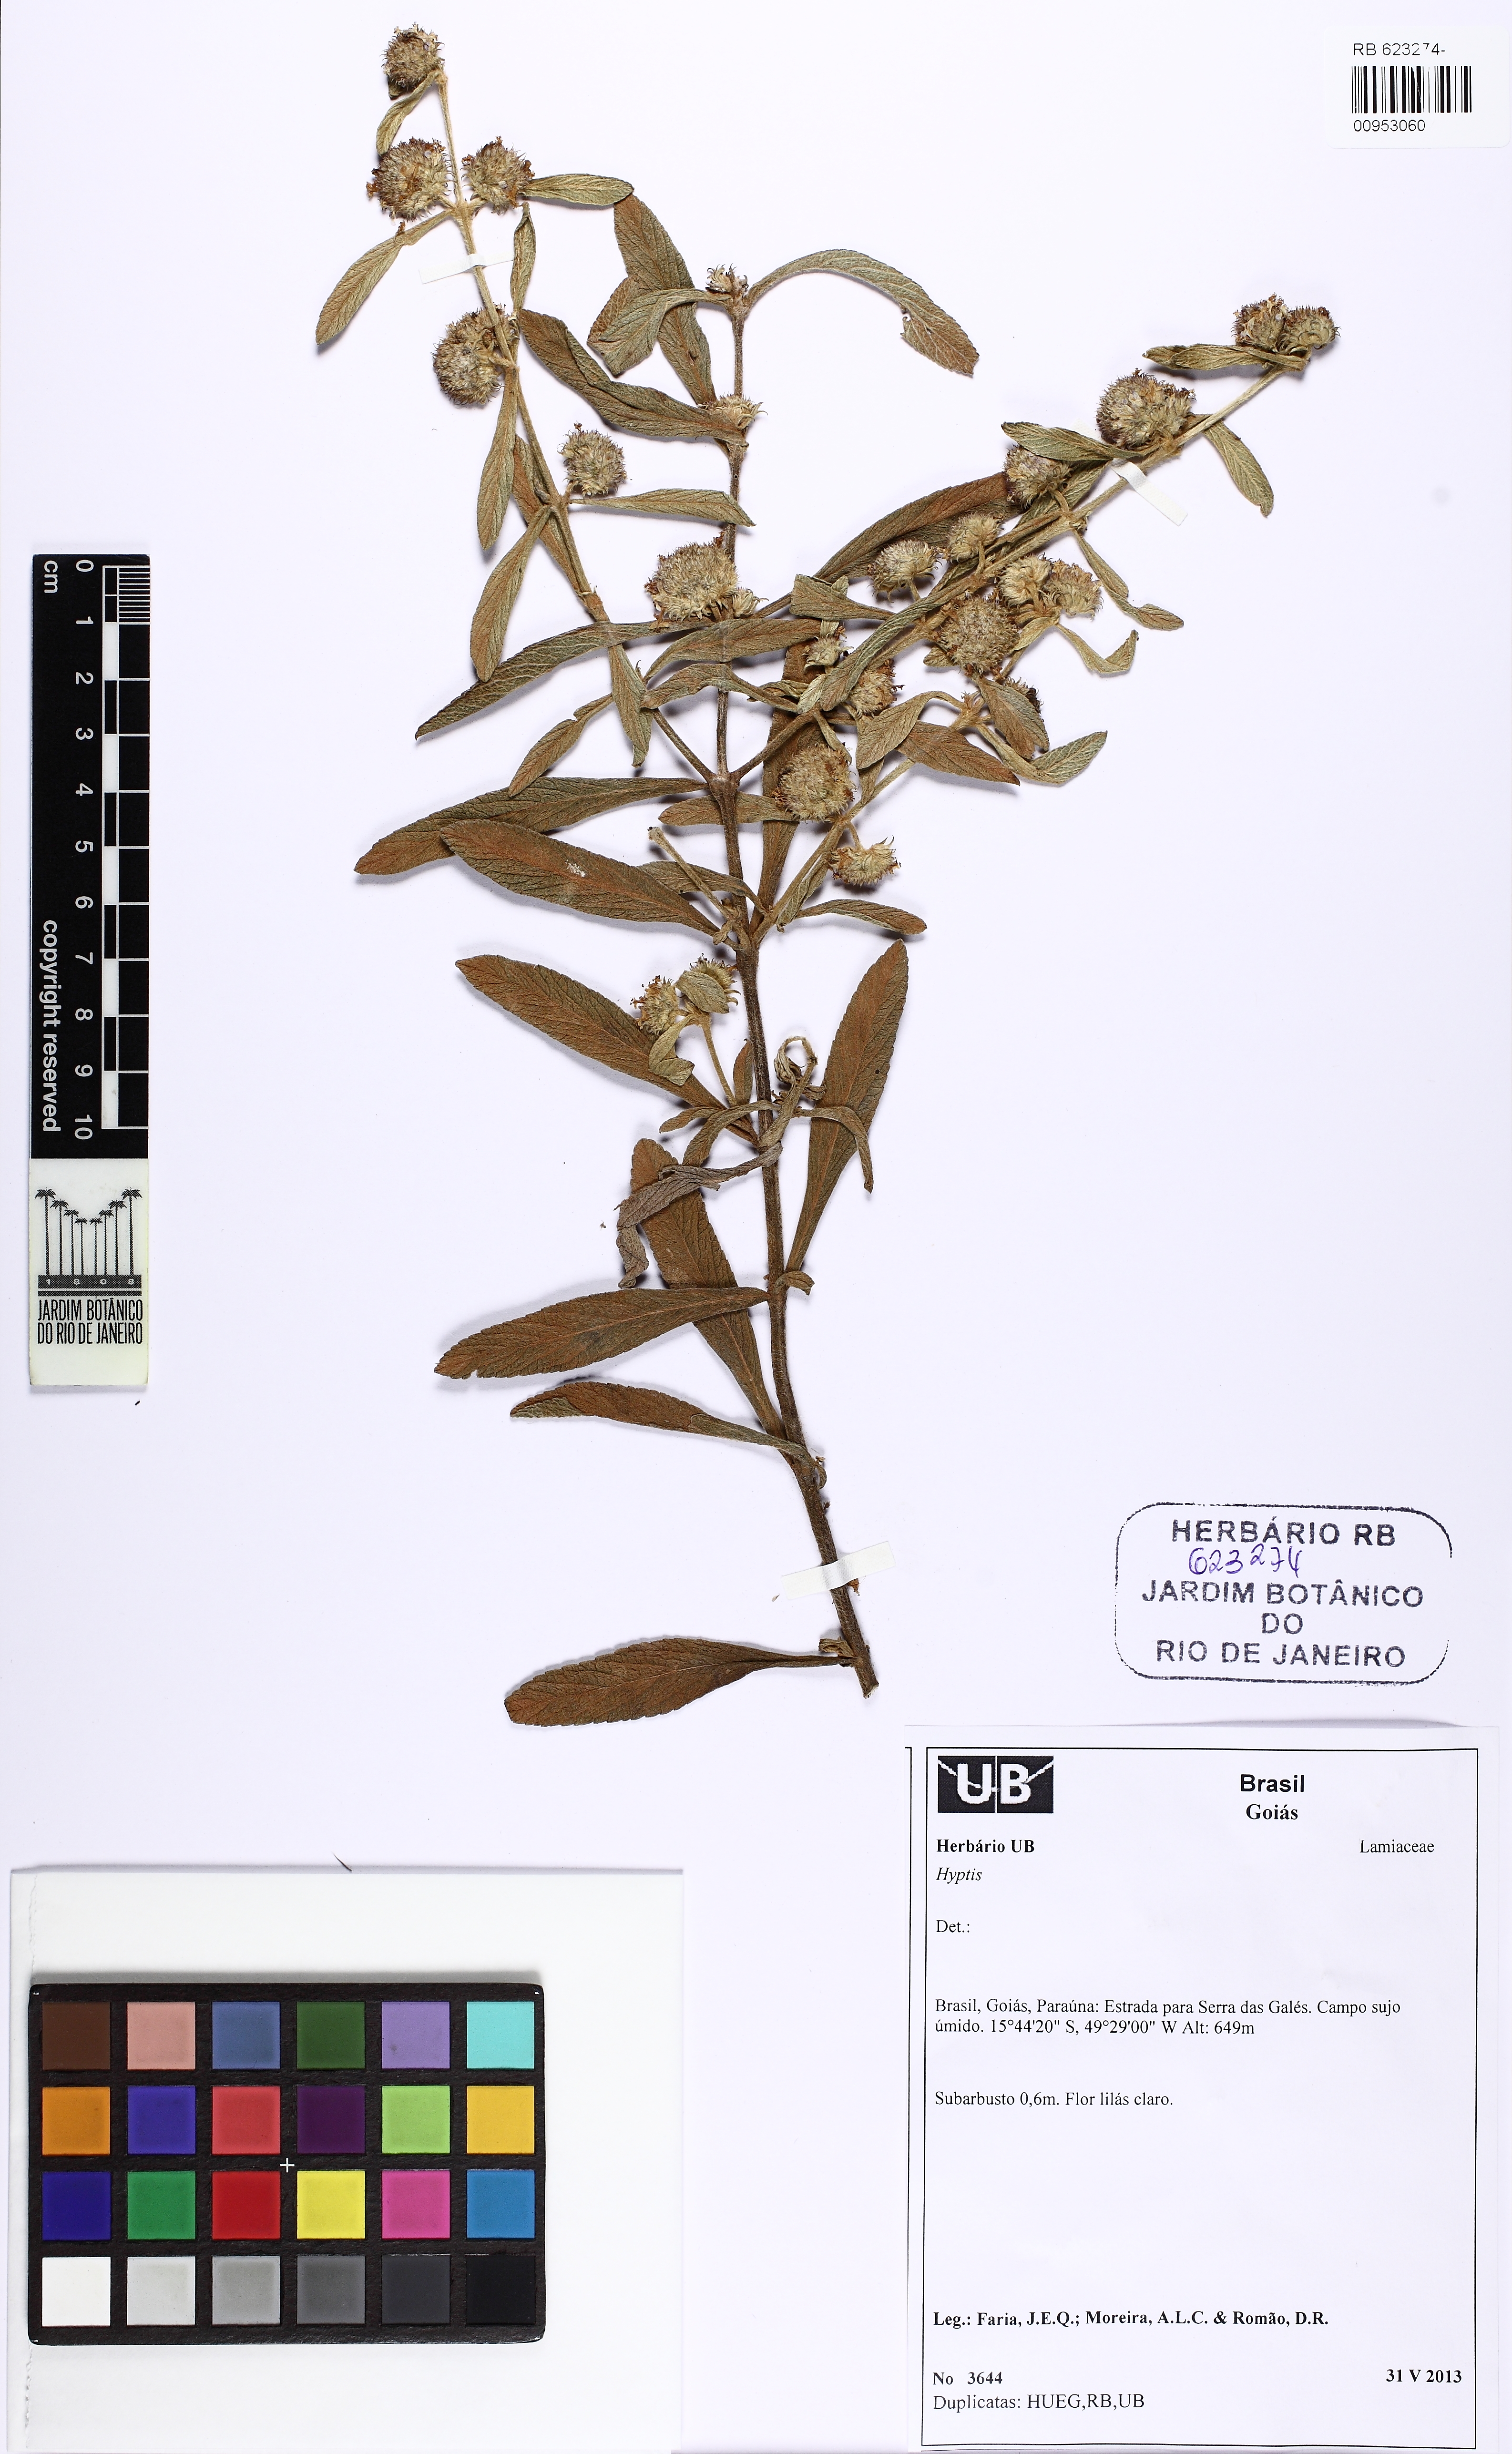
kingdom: Plantae
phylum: Tracheophyta
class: Magnoliopsida
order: Lamiales
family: Lamiaceae
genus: Hyptis
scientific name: Hyptis velutina
